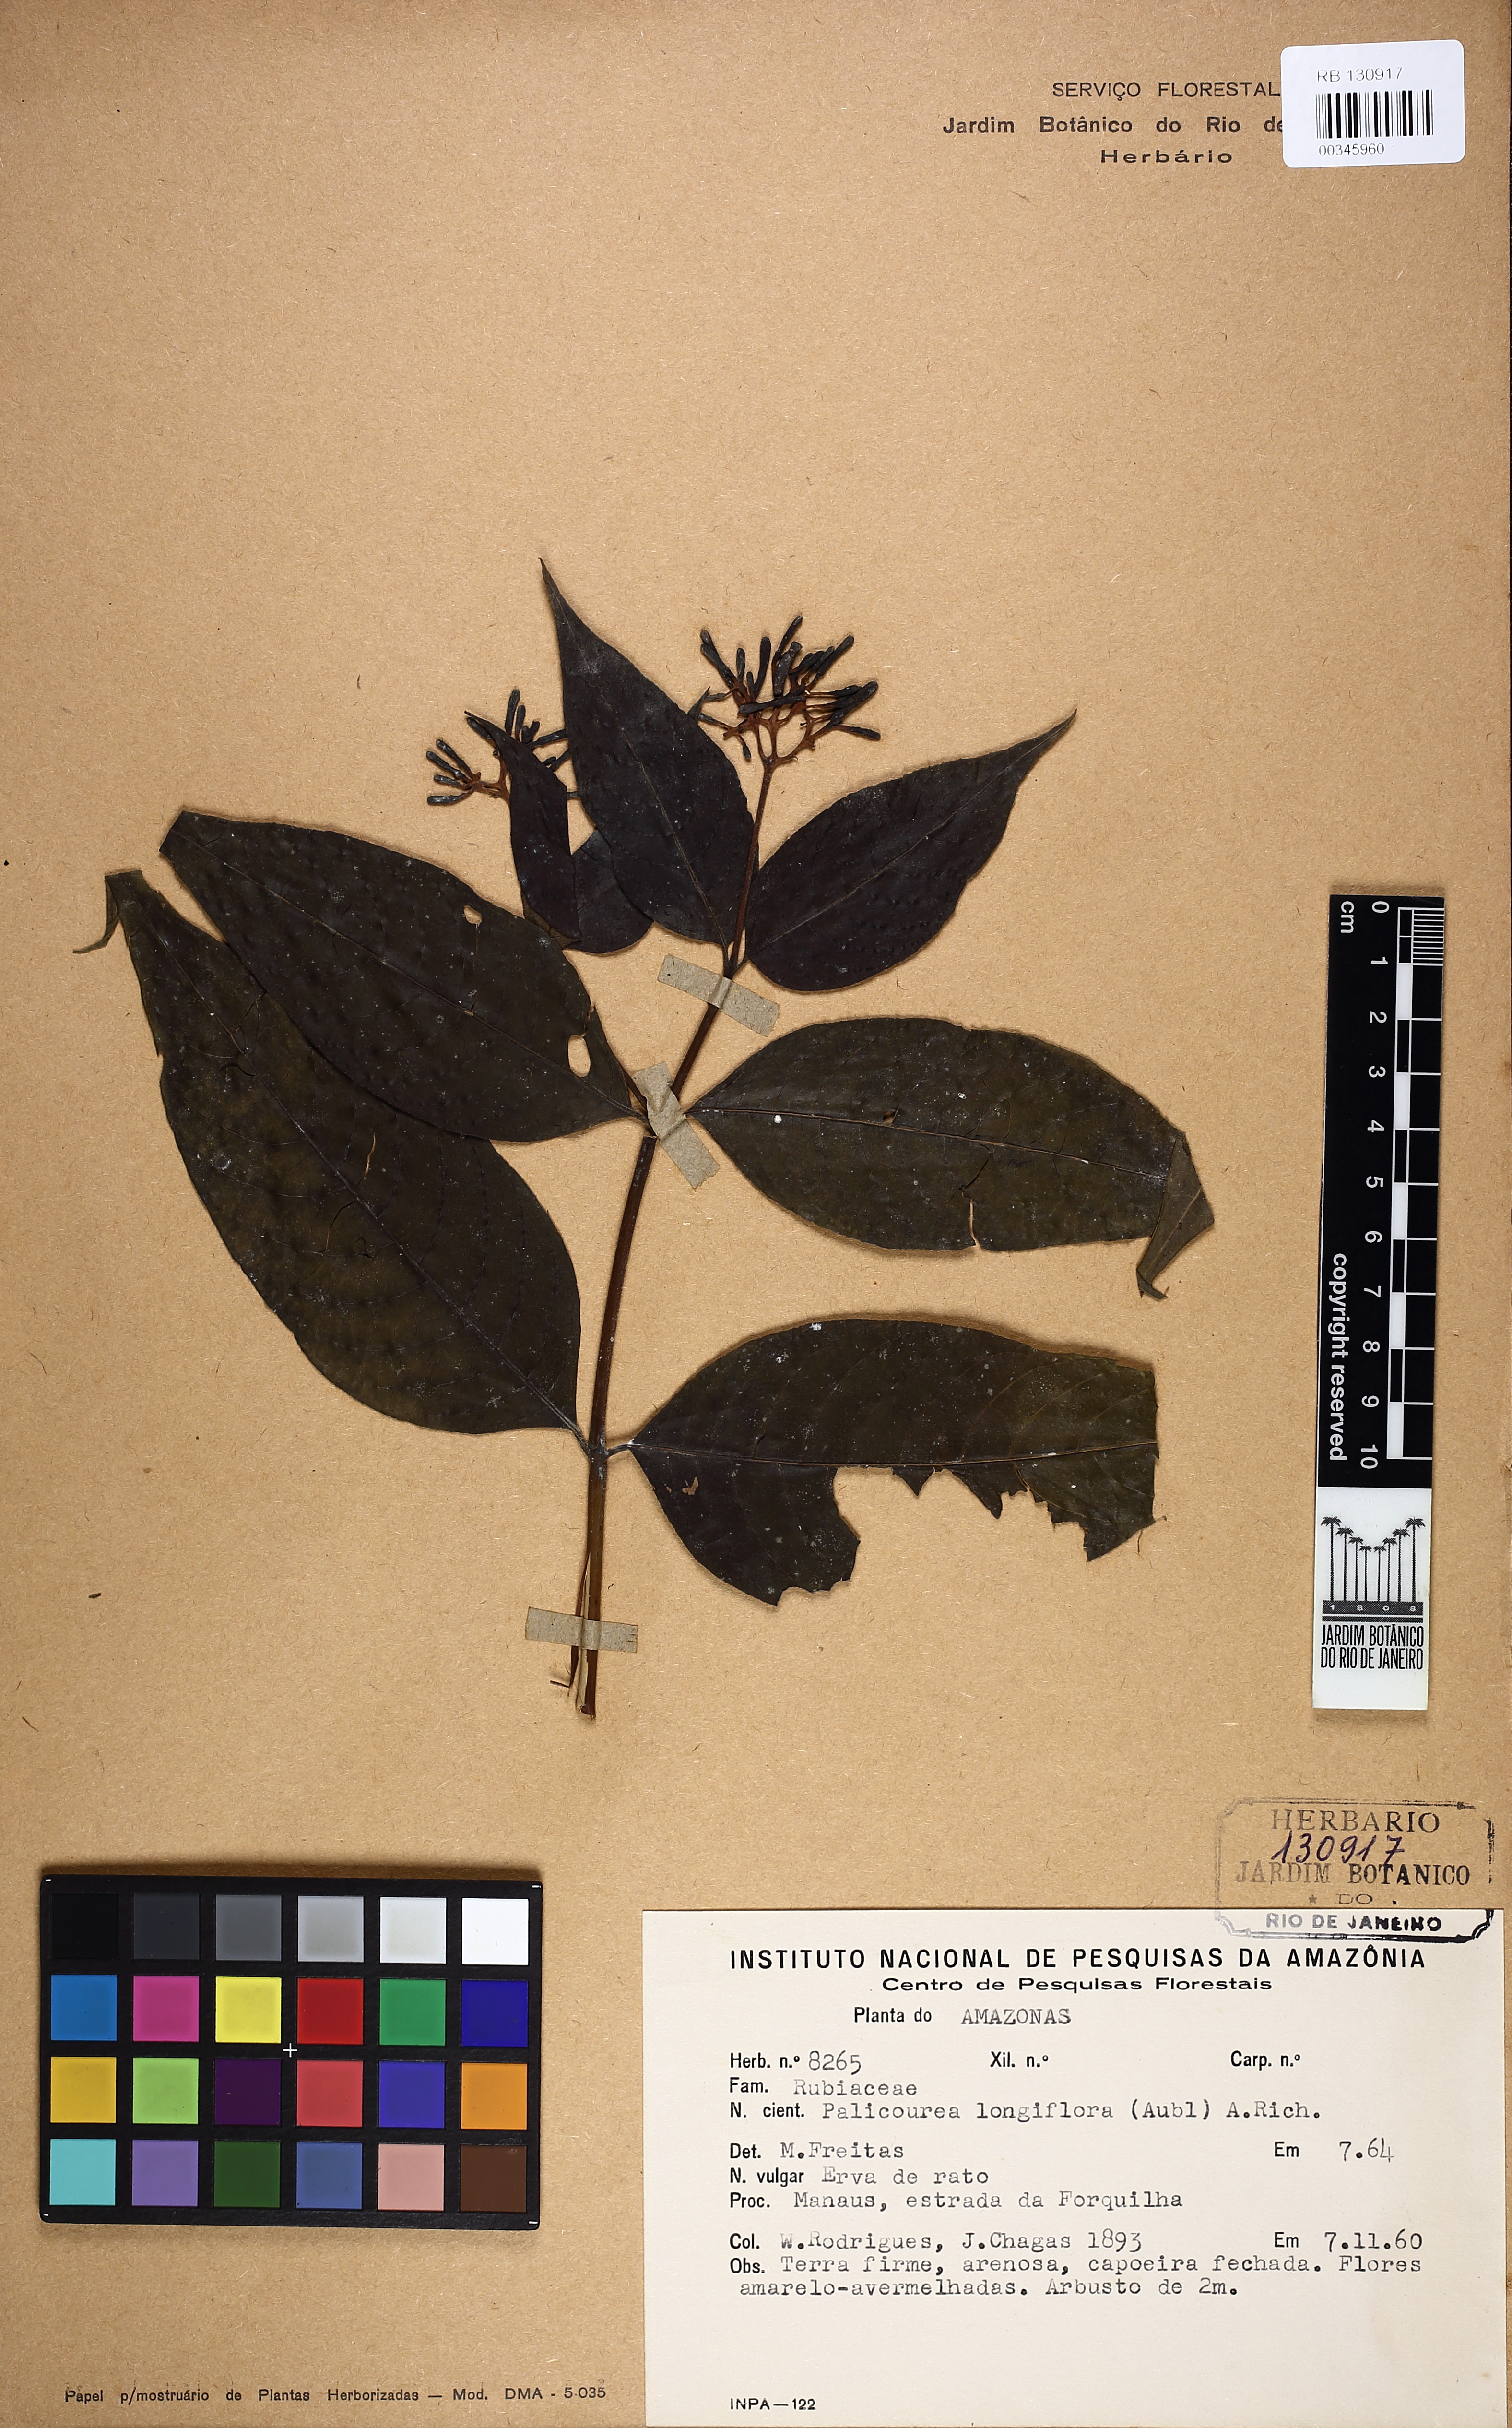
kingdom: Plantae
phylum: Tracheophyta
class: Magnoliopsida
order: Gentianales
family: Rubiaceae
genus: Palicourea
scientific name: Palicourea longiflora
